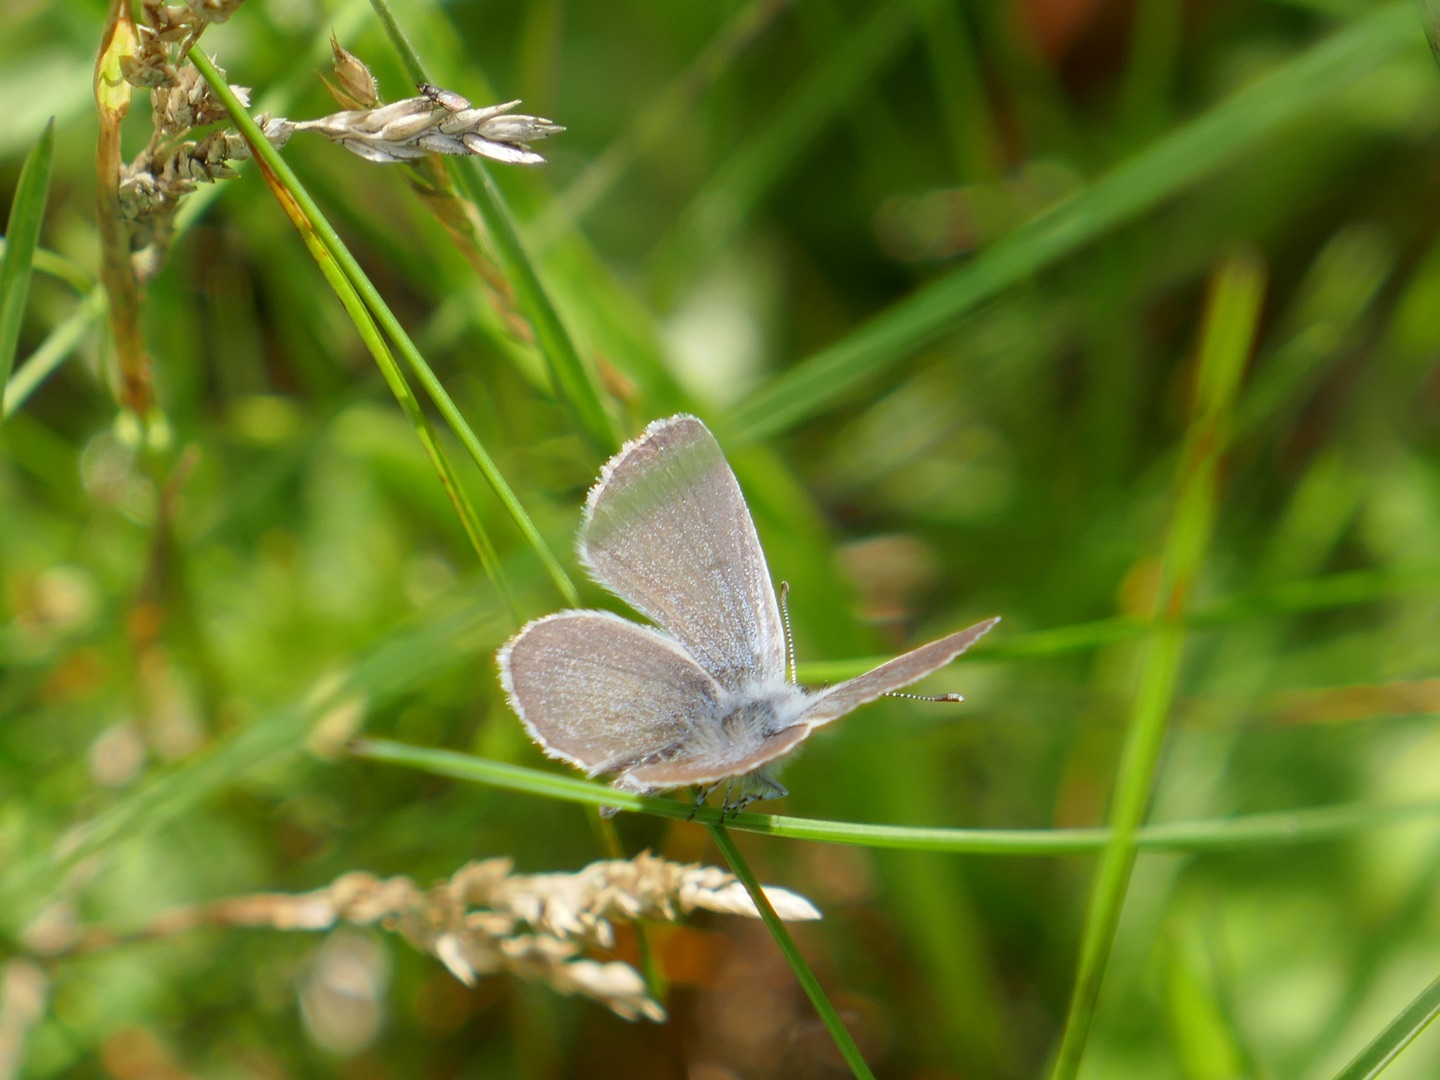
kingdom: Animalia
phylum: Arthropoda
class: Insecta
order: Lepidoptera
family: Lycaenidae
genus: Cupido
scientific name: Cupido minimus
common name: Dværgblåfugl
